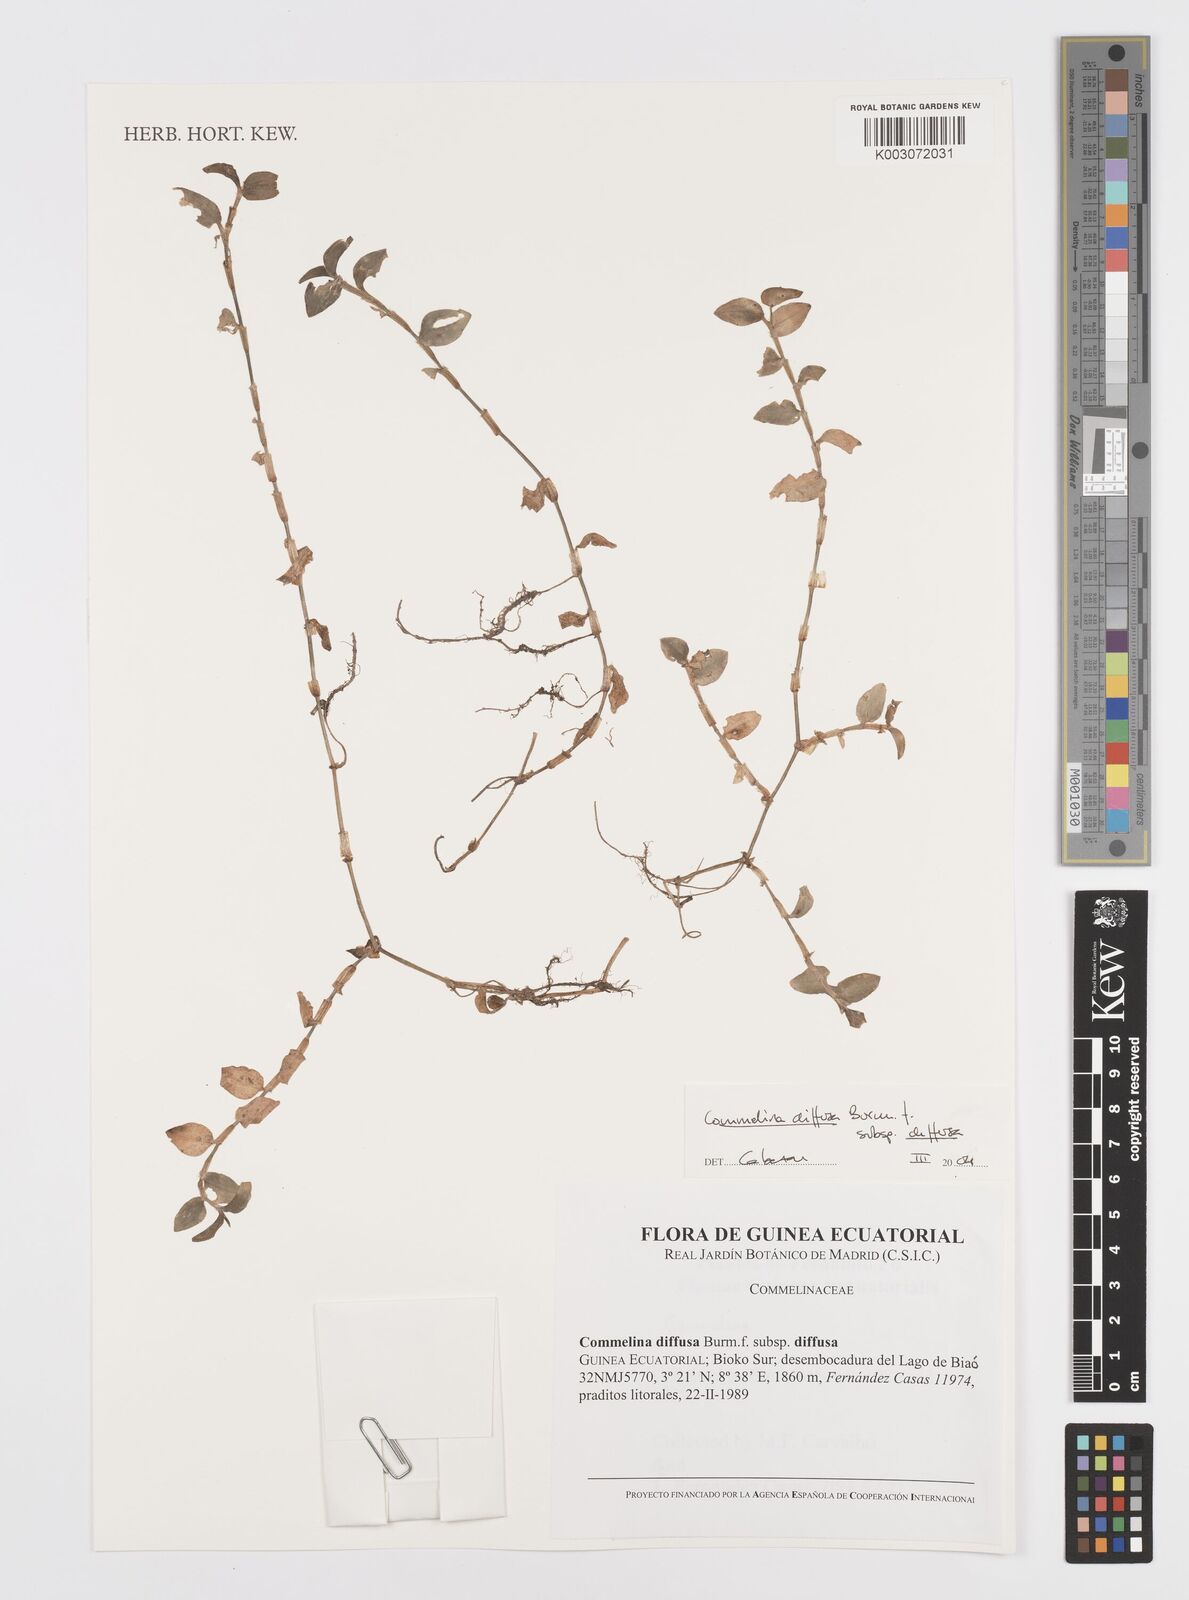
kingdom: Plantae
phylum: Tracheophyta
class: Liliopsida
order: Commelinales
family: Commelinaceae
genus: Commelina
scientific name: Commelina diffusa
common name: Climbing dayflower
